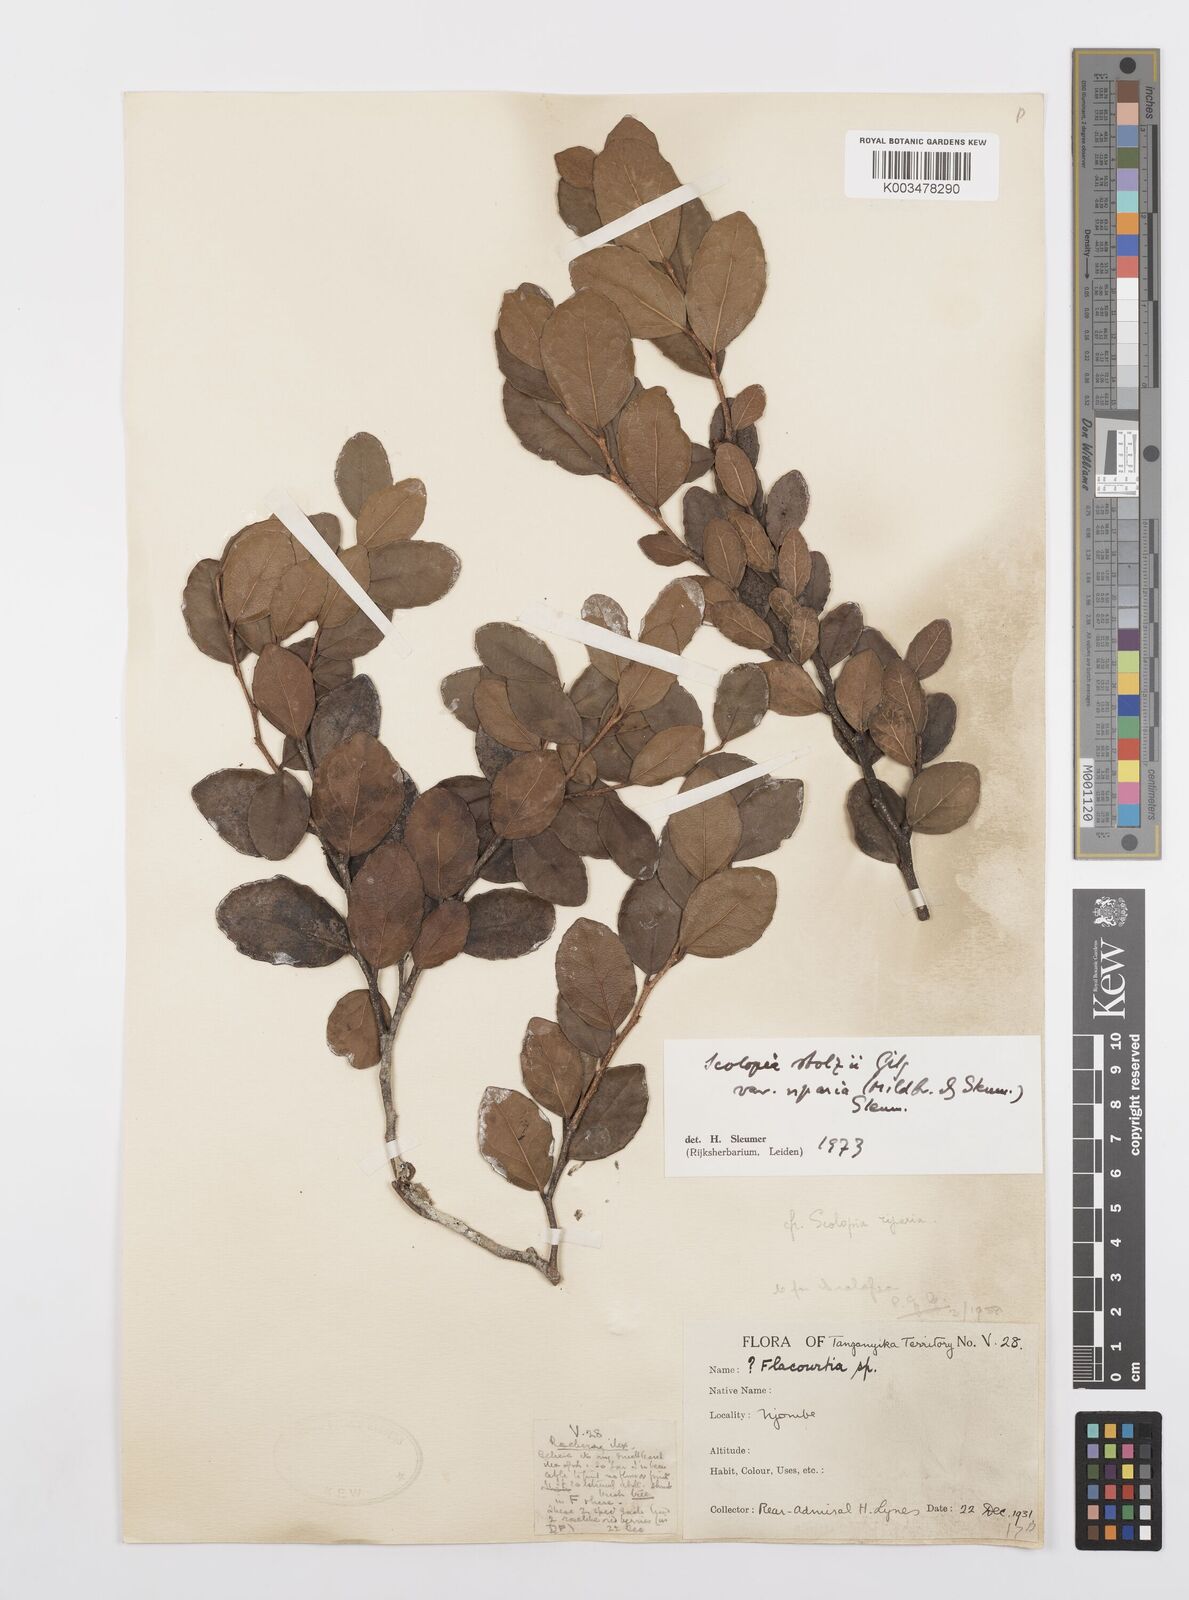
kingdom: Plantae
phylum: Tracheophyta
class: Magnoliopsida
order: Malpighiales
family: Salicaceae
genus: Scolopia
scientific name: Scolopia stolzii
